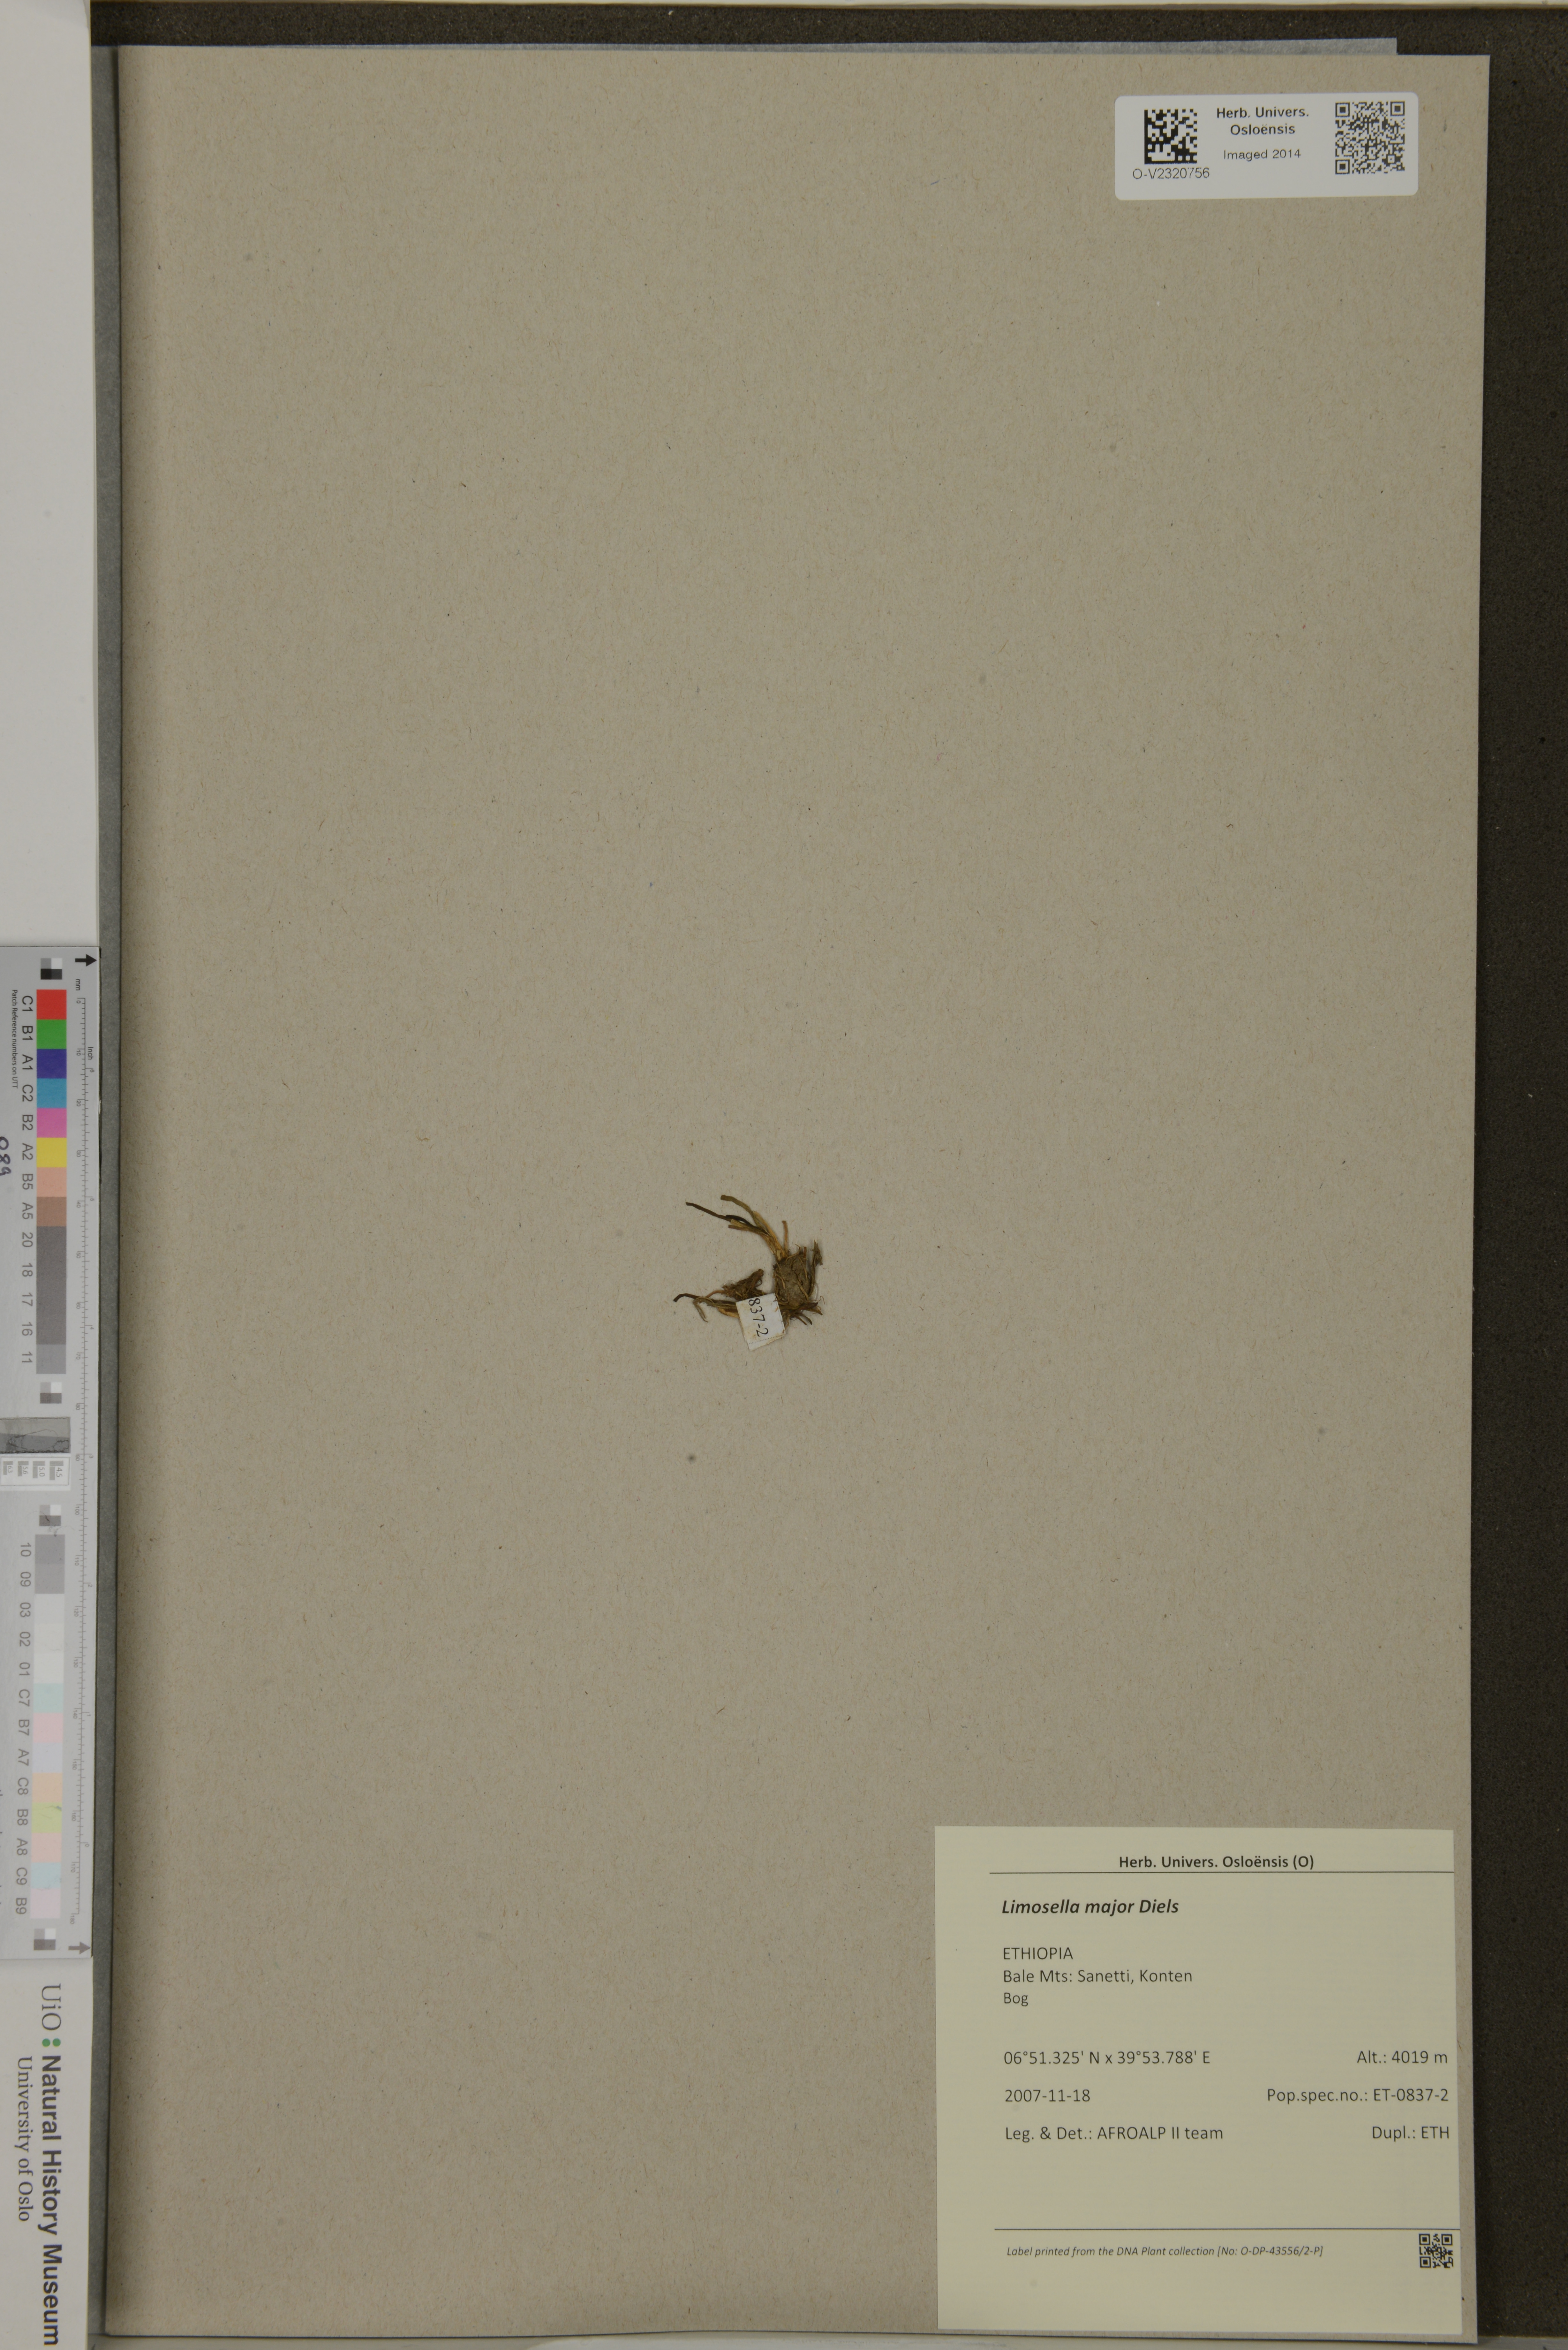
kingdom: Plantae
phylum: Tracheophyta
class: Magnoliopsida
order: Lamiales
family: Scrophulariaceae
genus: Limosella
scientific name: Limosella major
